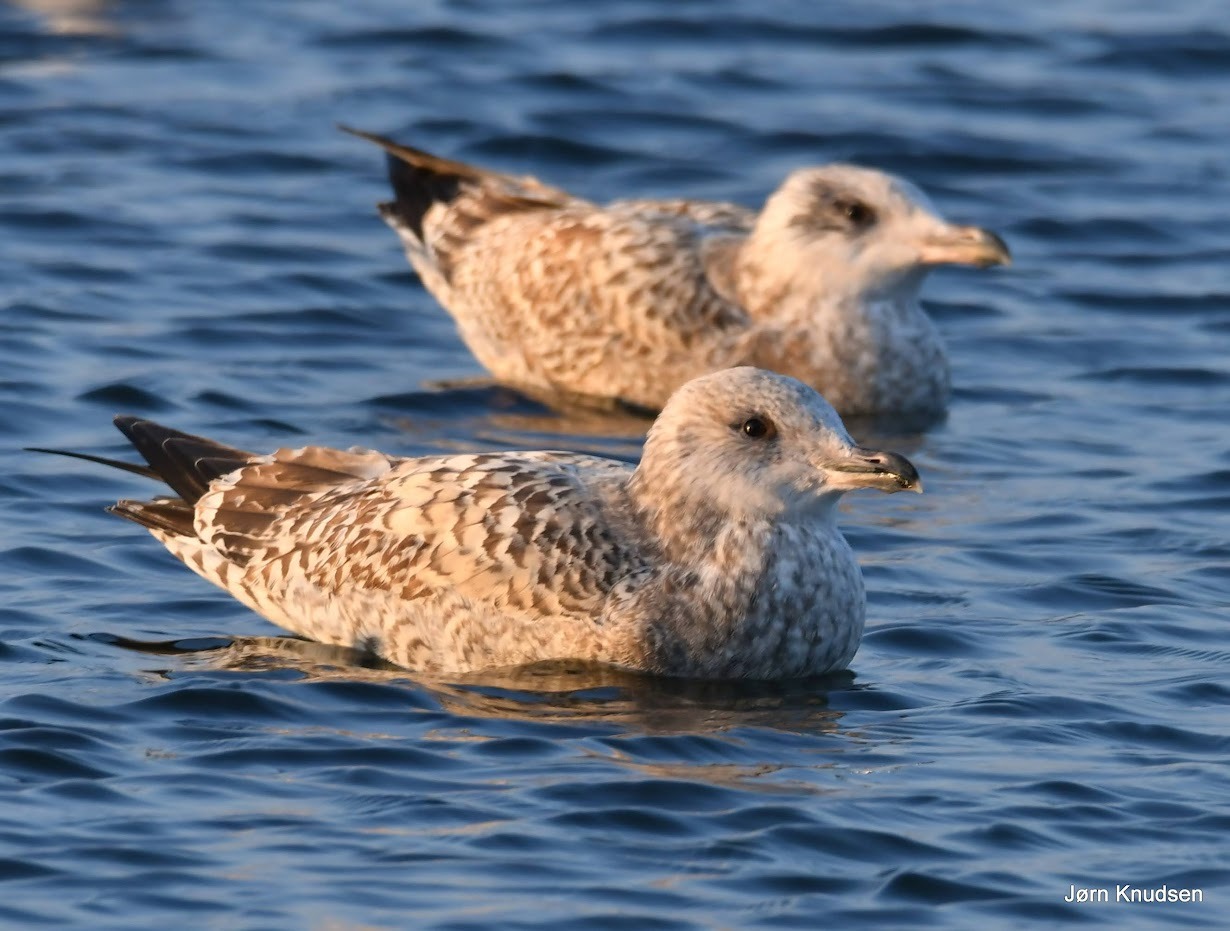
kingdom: Animalia
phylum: Chordata
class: Aves
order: Charadriiformes
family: Laridae
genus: Larus
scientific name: Larus argentatus
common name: Sølvmåge
